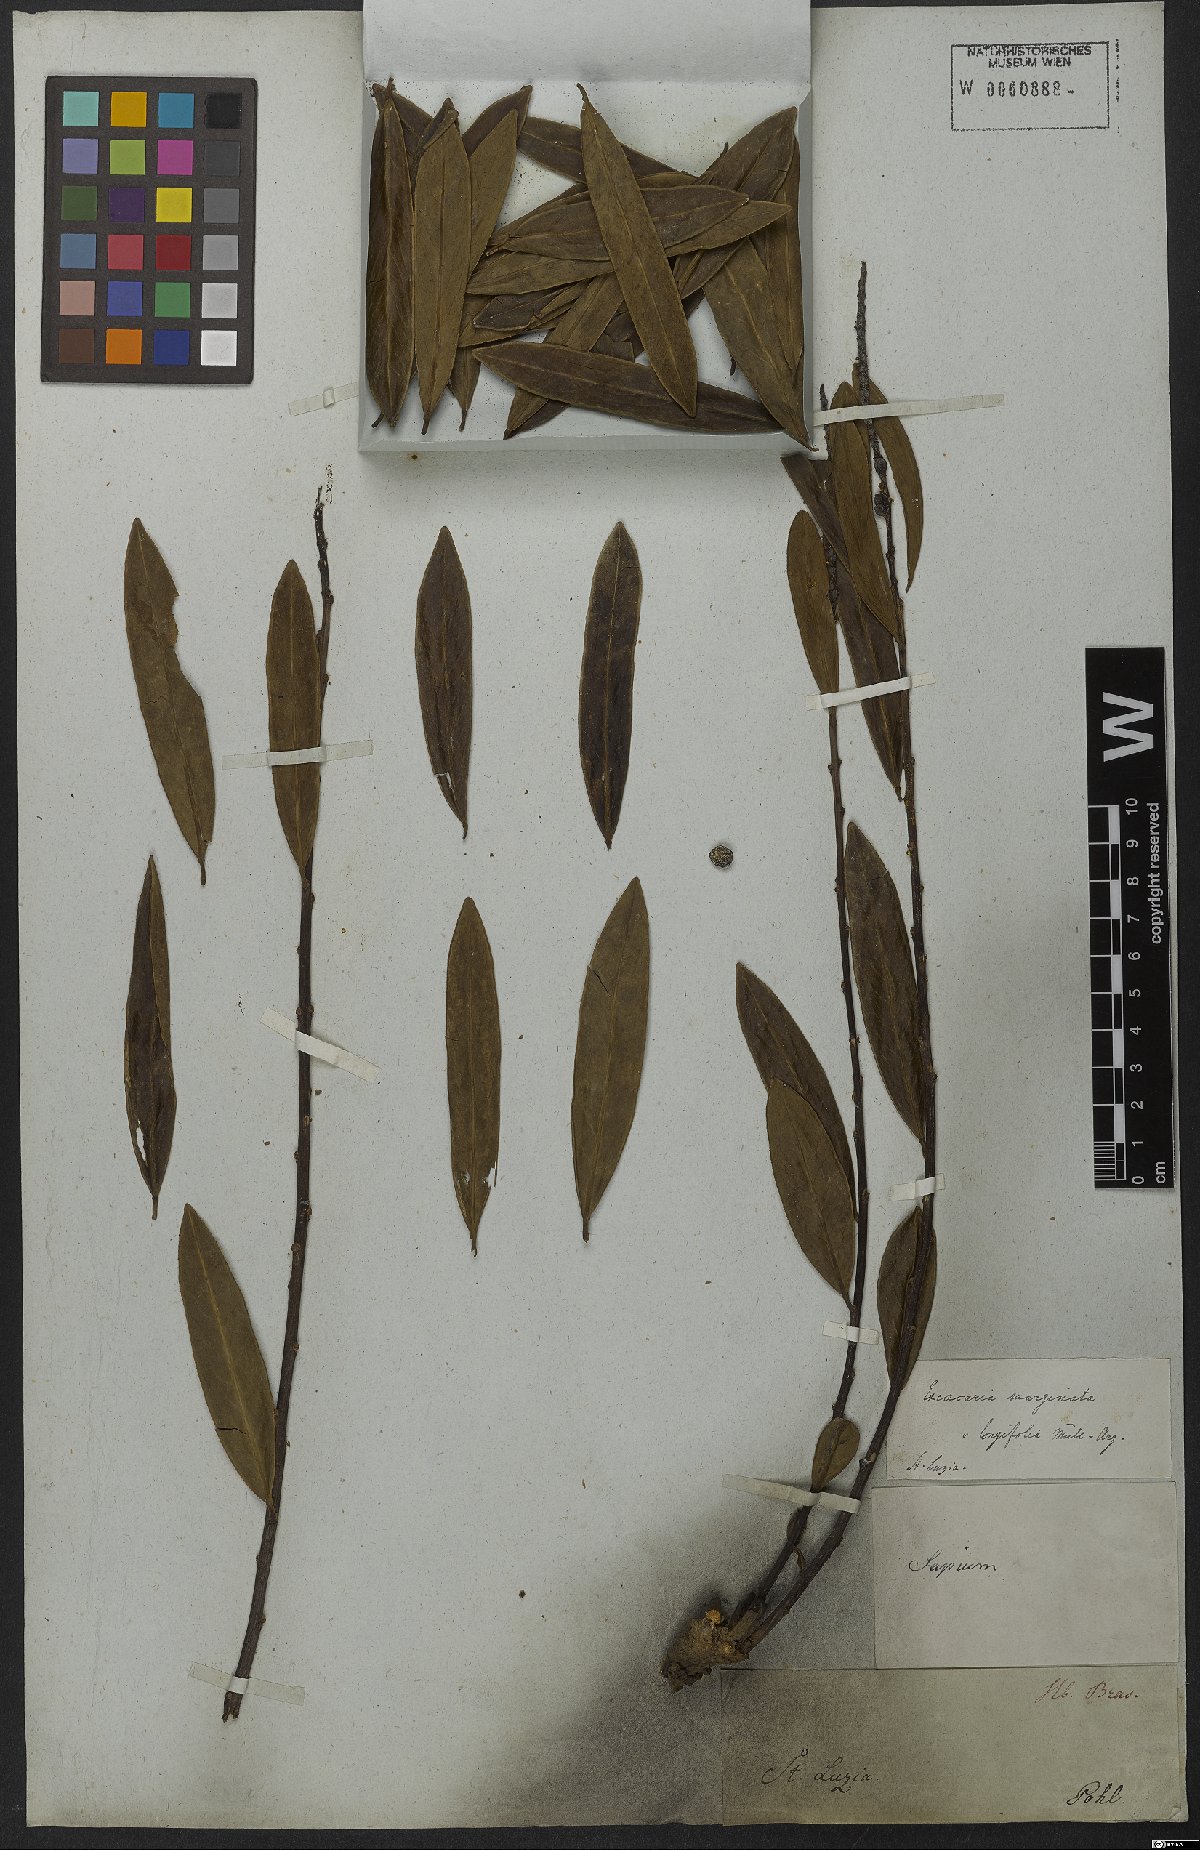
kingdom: Plantae
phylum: Tracheophyta
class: Magnoliopsida
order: Malpighiales
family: Euphorbiaceae
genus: Sapium
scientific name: Sapium glandulosum
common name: Milktree
